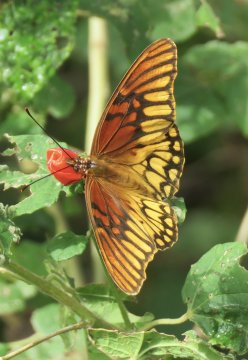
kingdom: Animalia
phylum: Arthropoda
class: Insecta
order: Lepidoptera
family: Nymphalidae
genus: Dione
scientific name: Dione moneta
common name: Mexican Silverspot
